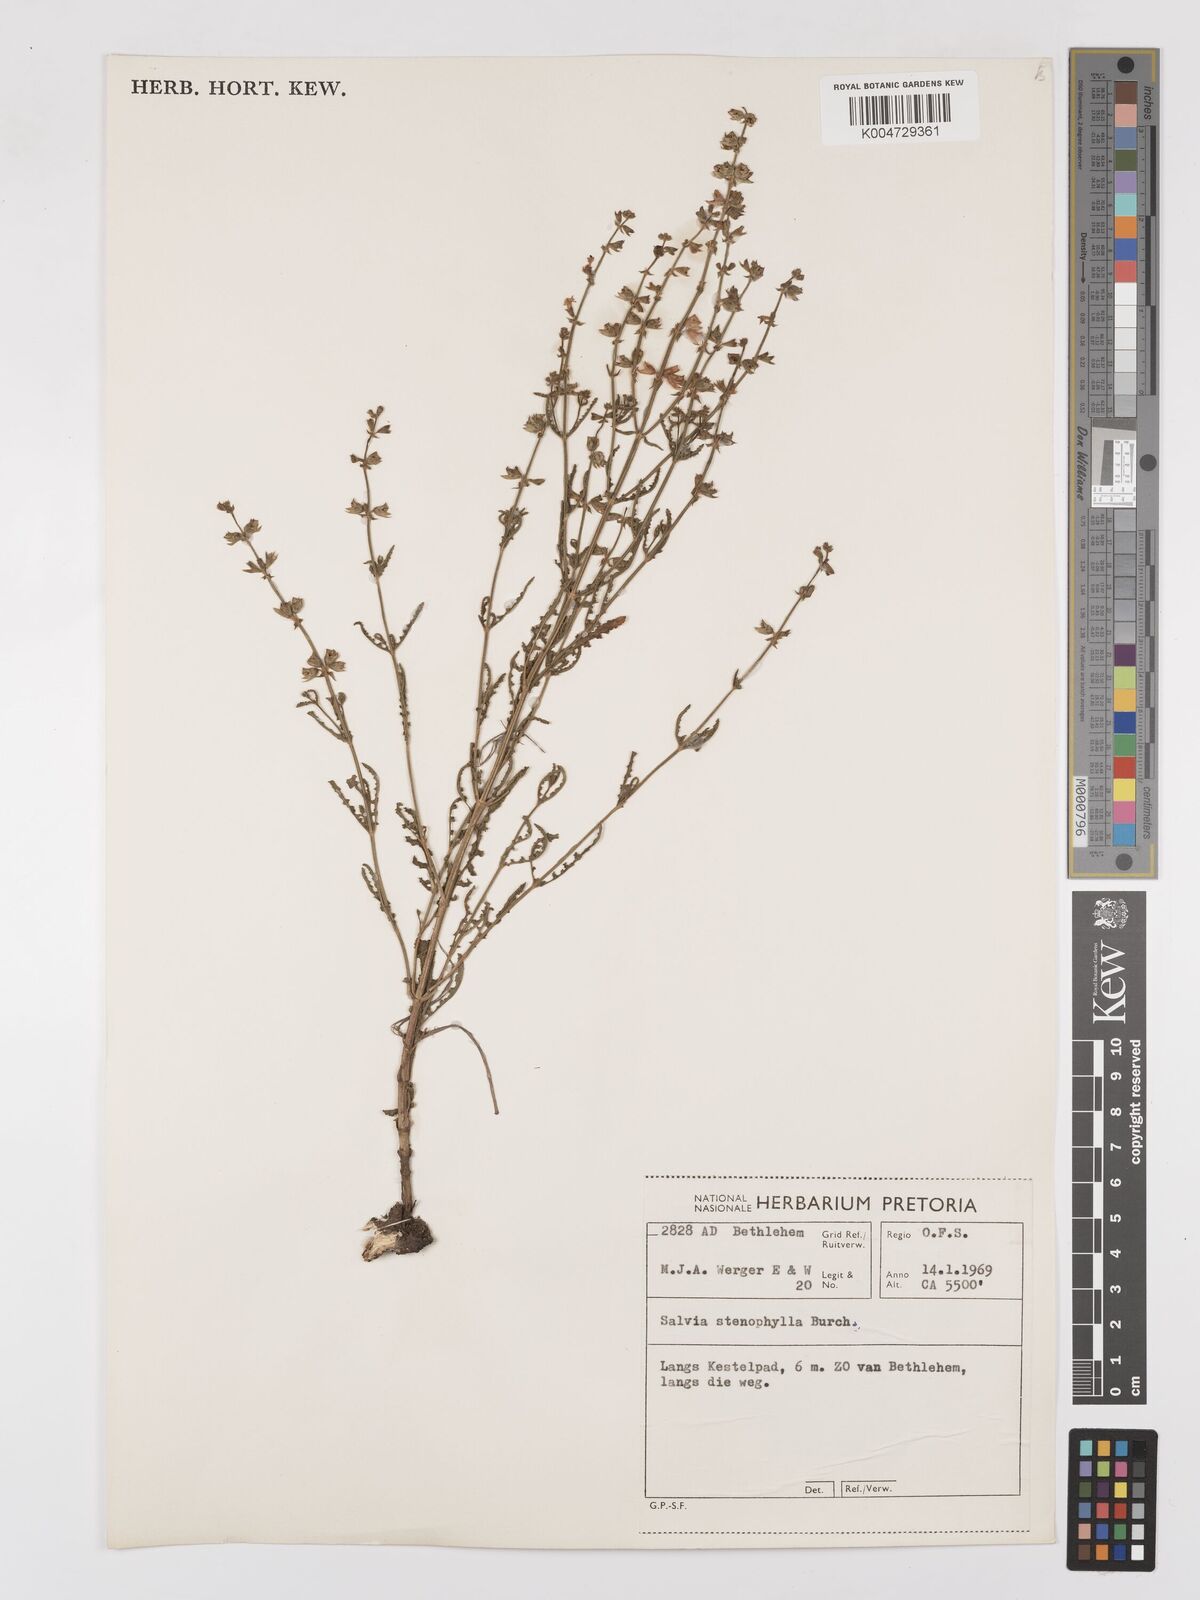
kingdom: Plantae
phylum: Tracheophyta
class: Magnoliopsida
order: Lamiales
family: Lamiaceae
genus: Salvia
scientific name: Salvia stenophylla
